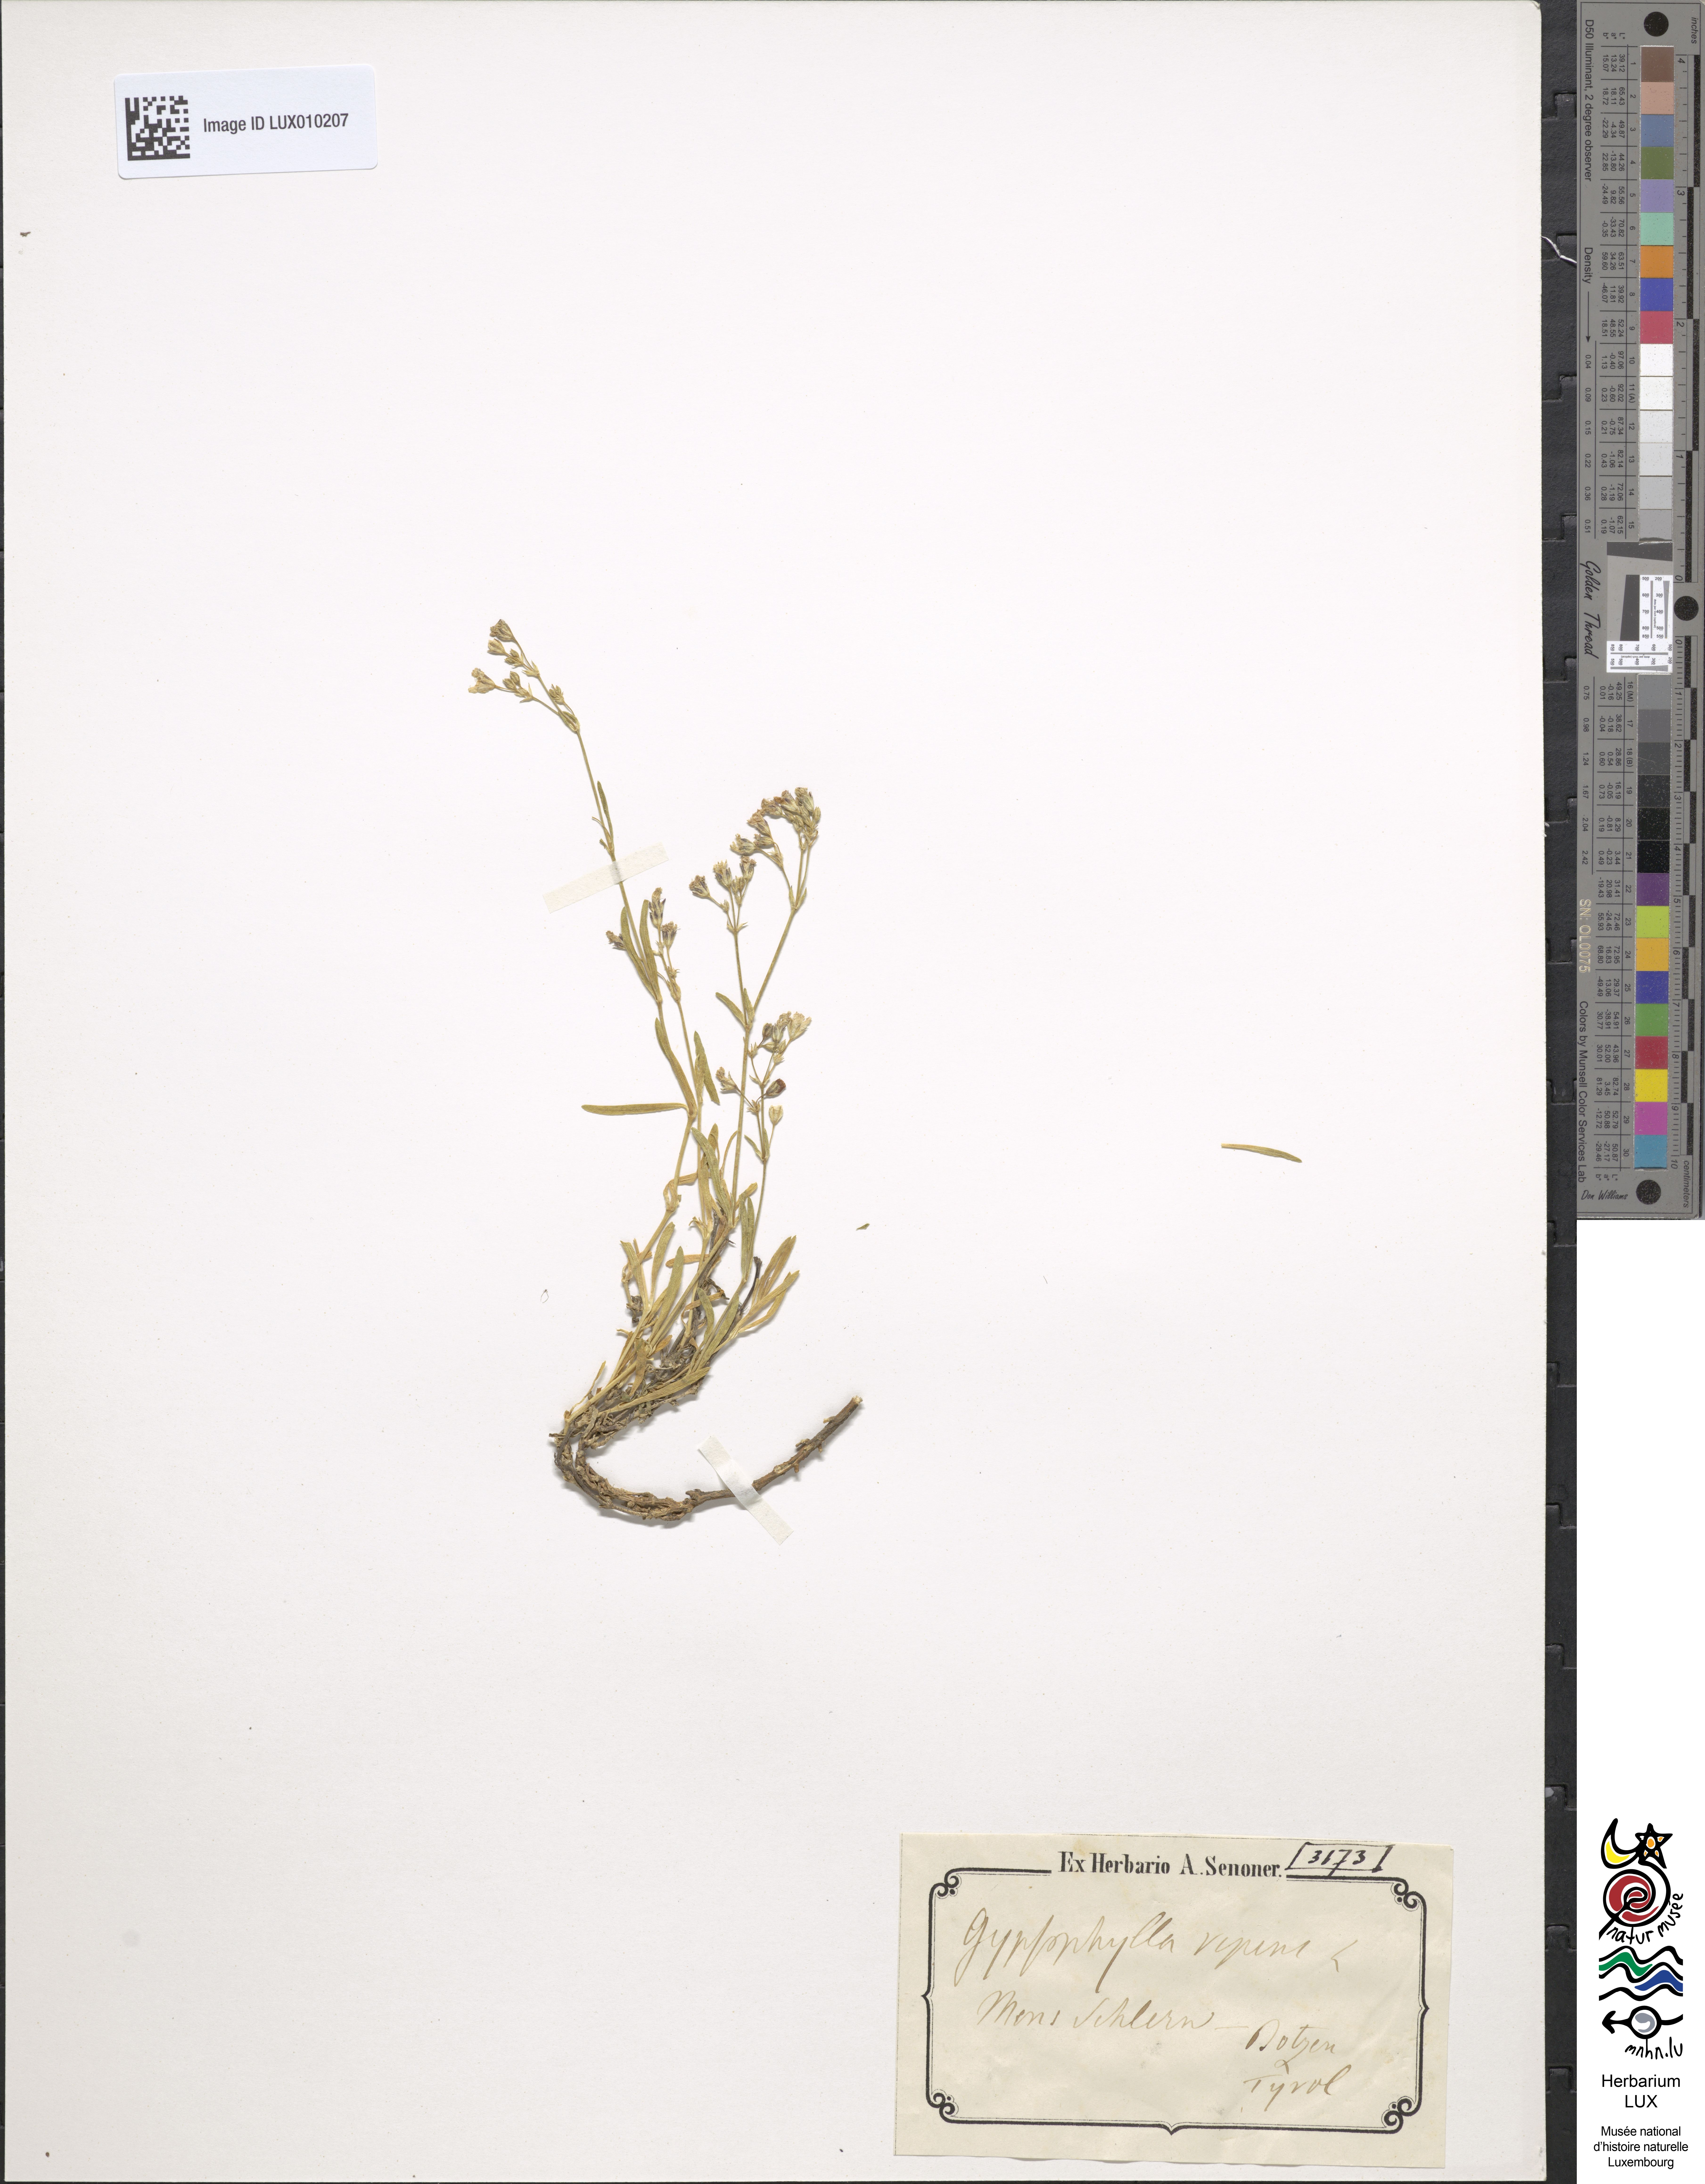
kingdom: Plantae
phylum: Tracheophyta
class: Magnoliopsida
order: Caryophyllales
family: Caryophyllaceae
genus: Gypsophila
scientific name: Gypsophila repens
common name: Creeping baby's-breath
